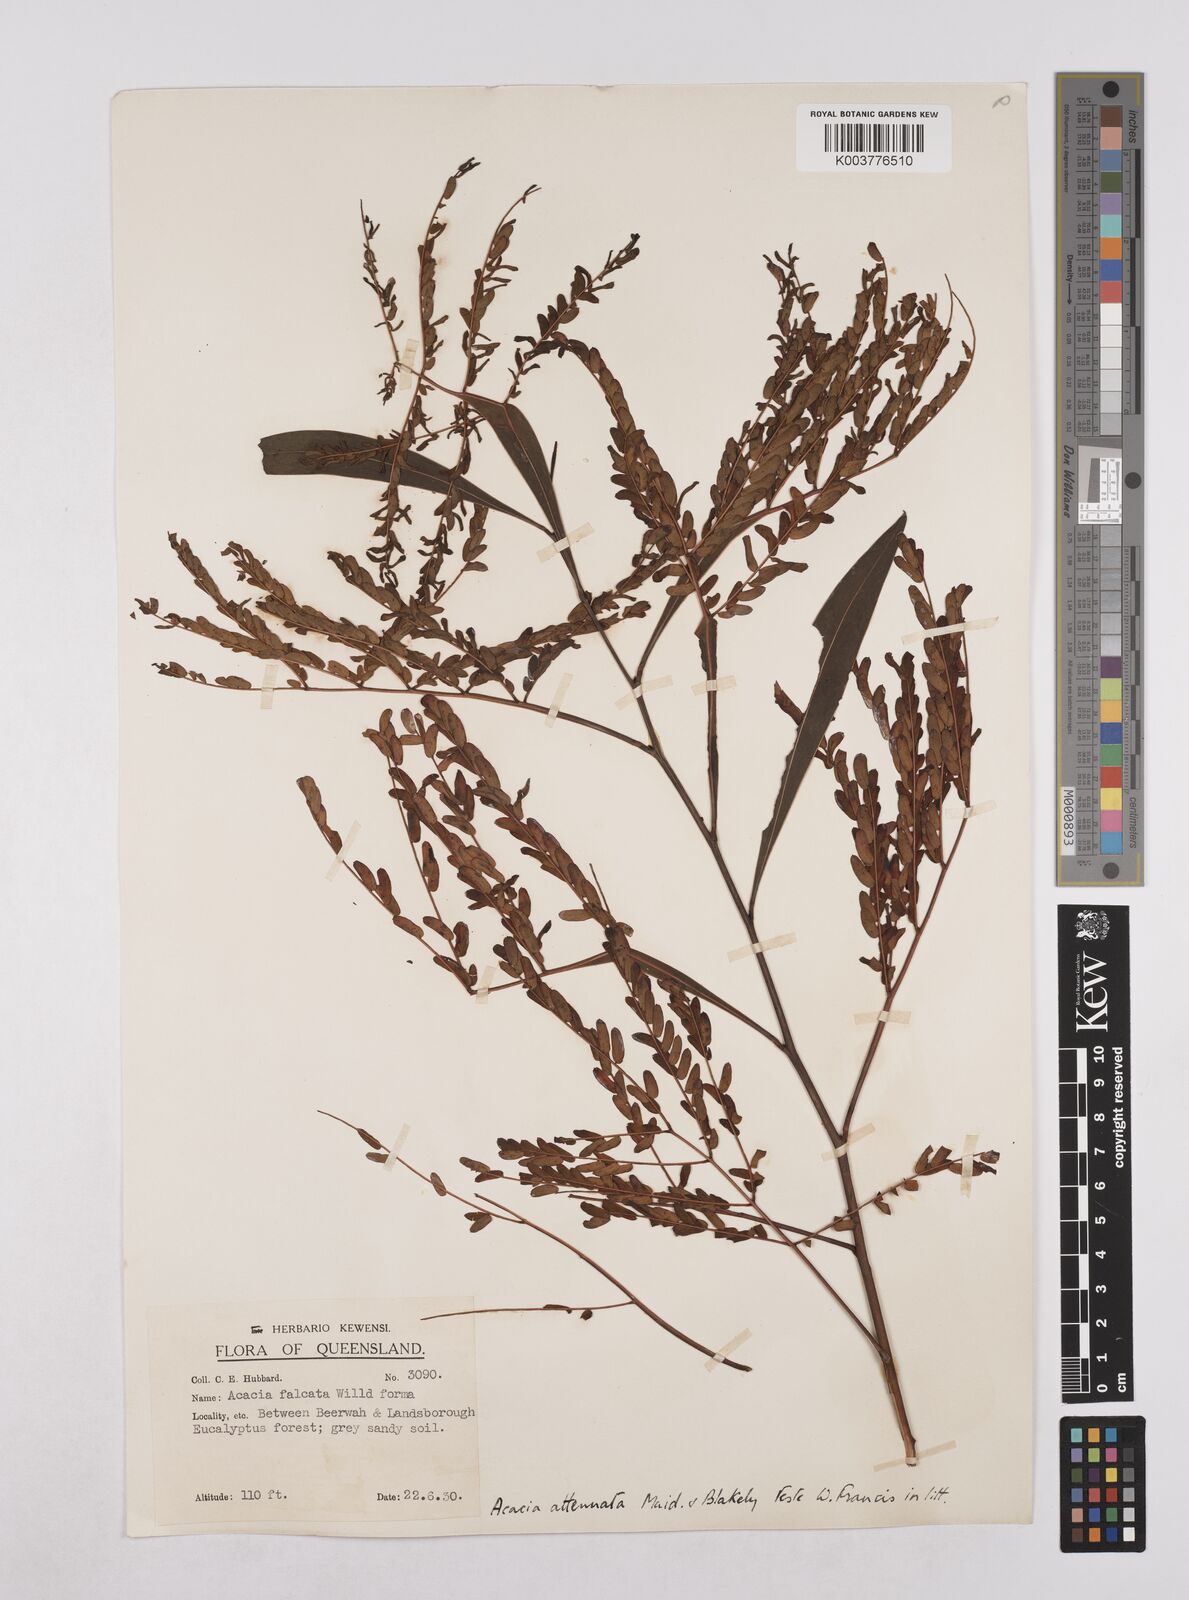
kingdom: Plantae
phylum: Tracheophyta
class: Magnoliopsida
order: Fabales
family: Fabaceae
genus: Acacia
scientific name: Acacia attenuata
